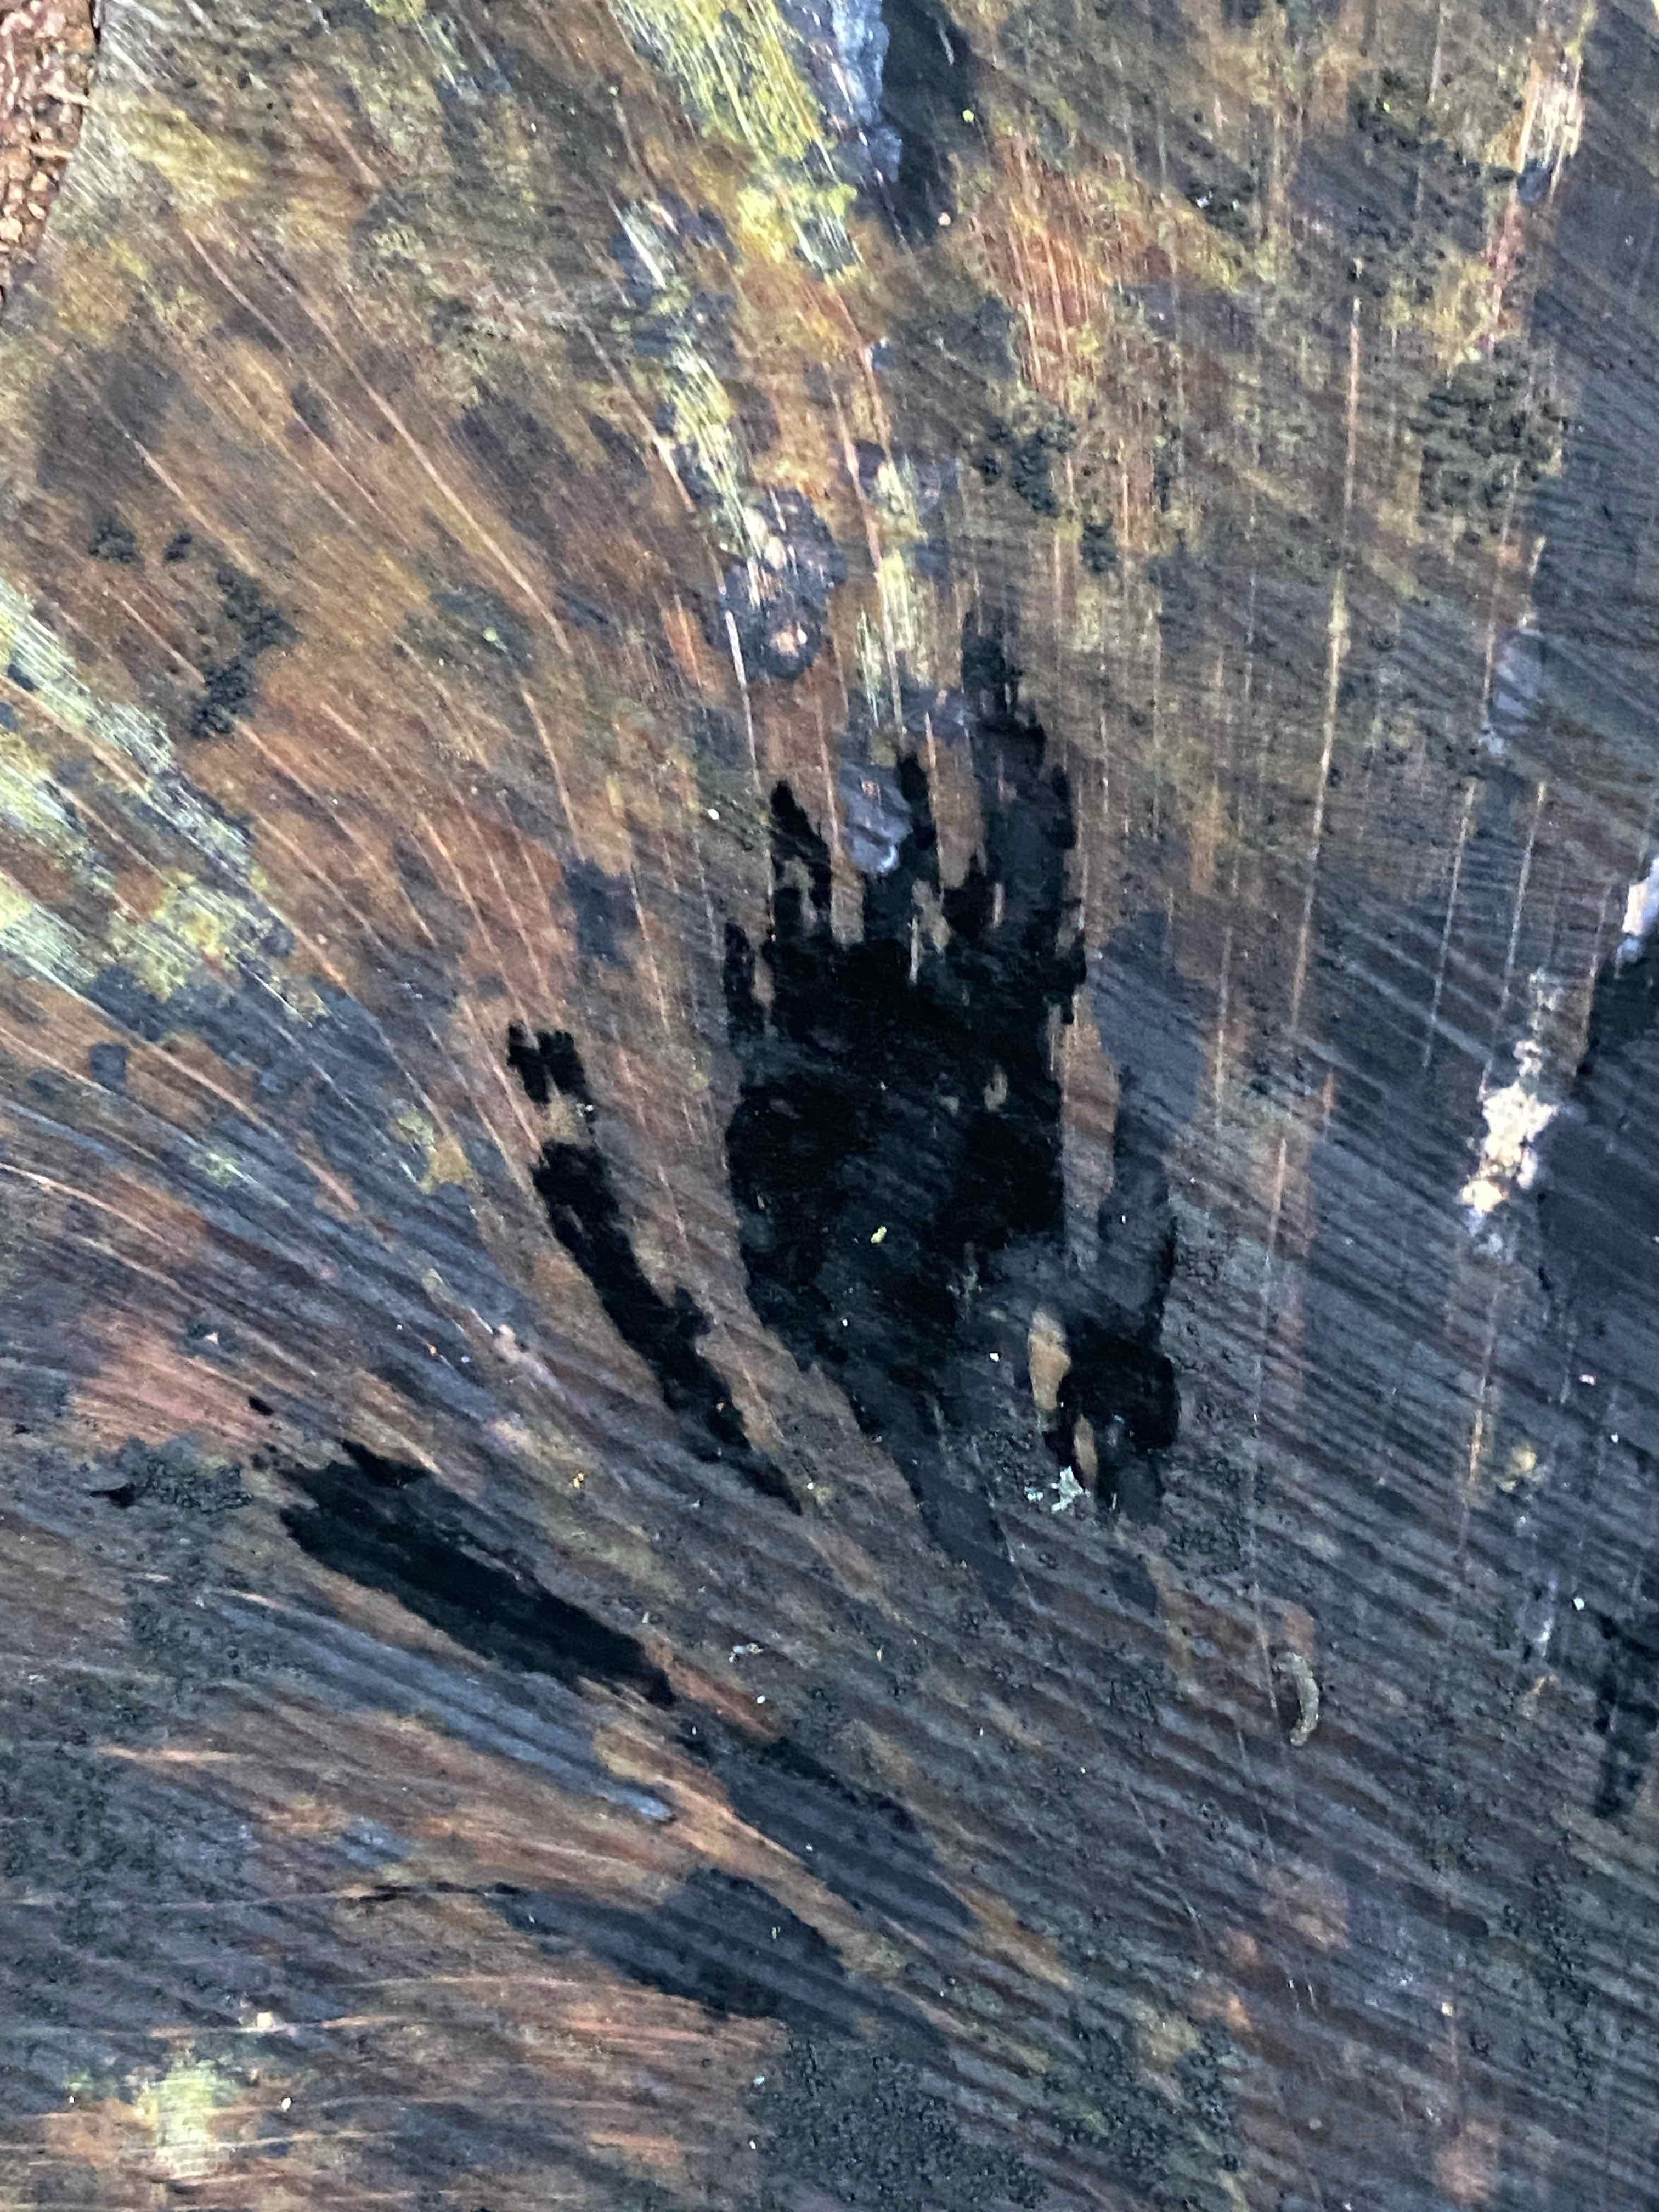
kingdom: Fungi
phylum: Ascomycota
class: Leotiomycetes
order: Helotiales
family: Helotiaceae
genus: Bispora
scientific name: Bispora pallescens
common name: måtte-snitskive
